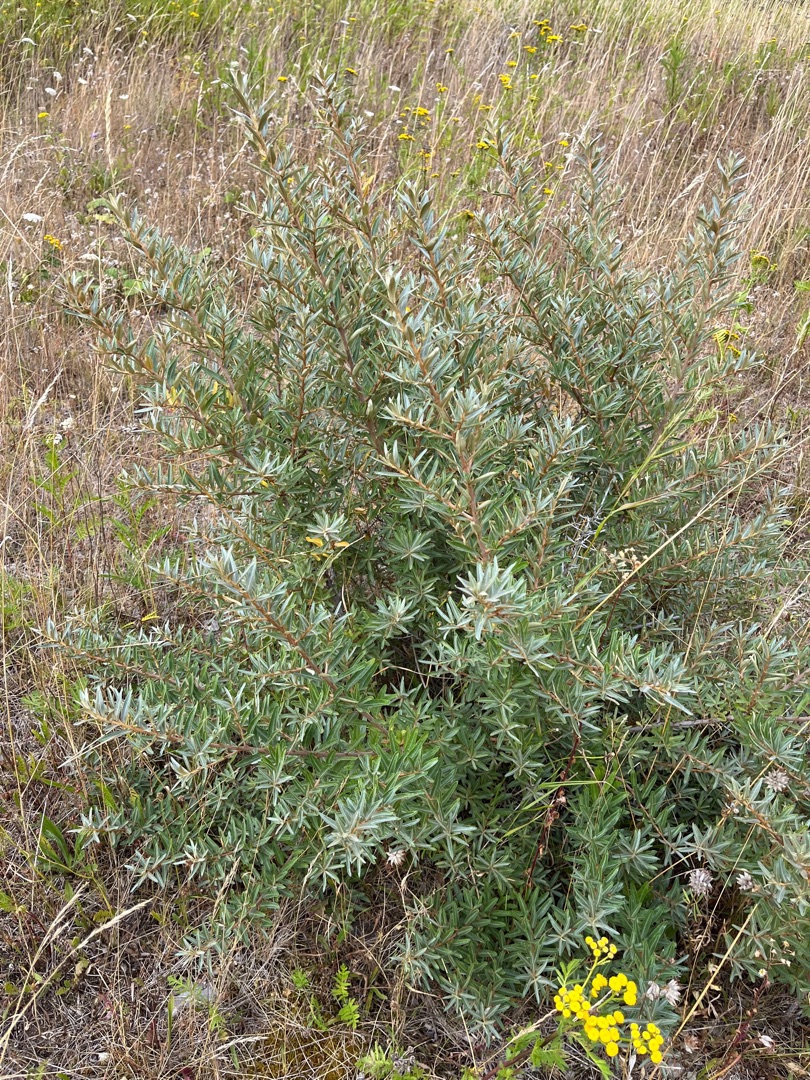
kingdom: Plantae
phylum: Tracheophyta
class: Magnoliopsida
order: Rosales
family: Elaeagnaceae
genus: Hippophae
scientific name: Hippophae rhamnoides
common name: Havtorn
